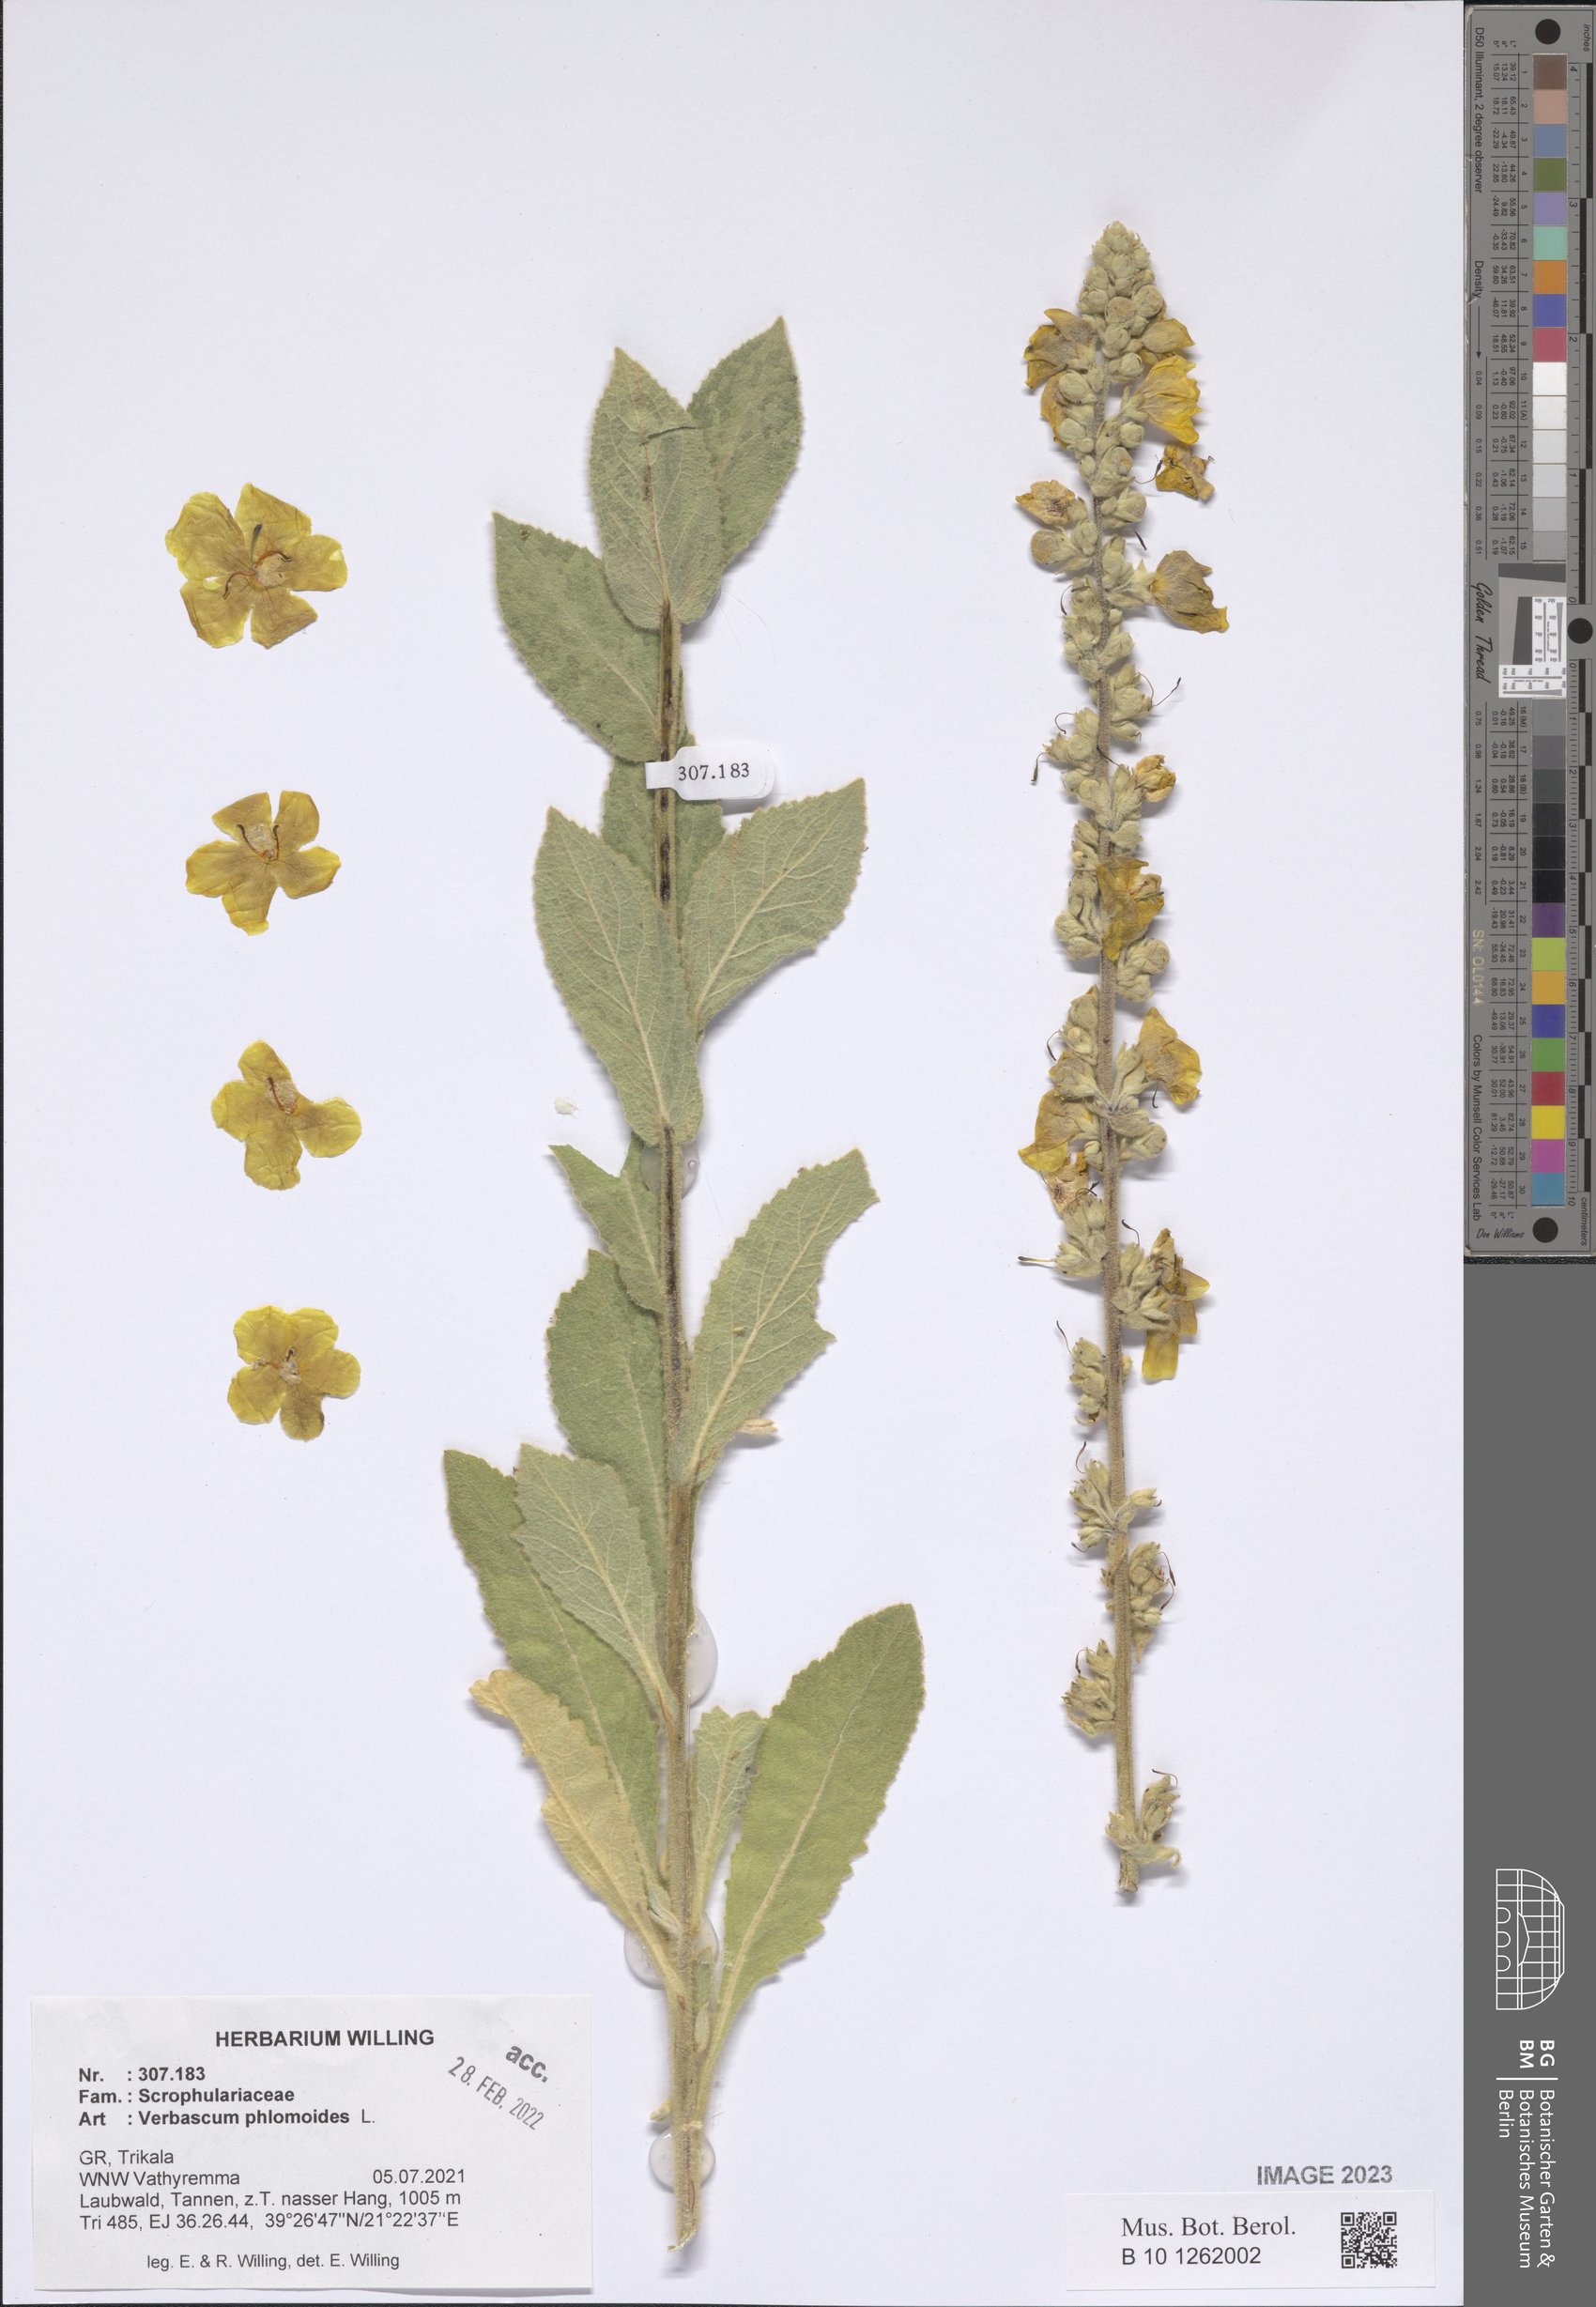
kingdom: Plantae
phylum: Tracheophyta
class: Magnoliopsida
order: Lamiales
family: Scrophulariaceae
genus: Verbascum
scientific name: Verbascum phlomoides
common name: Orange mullein
